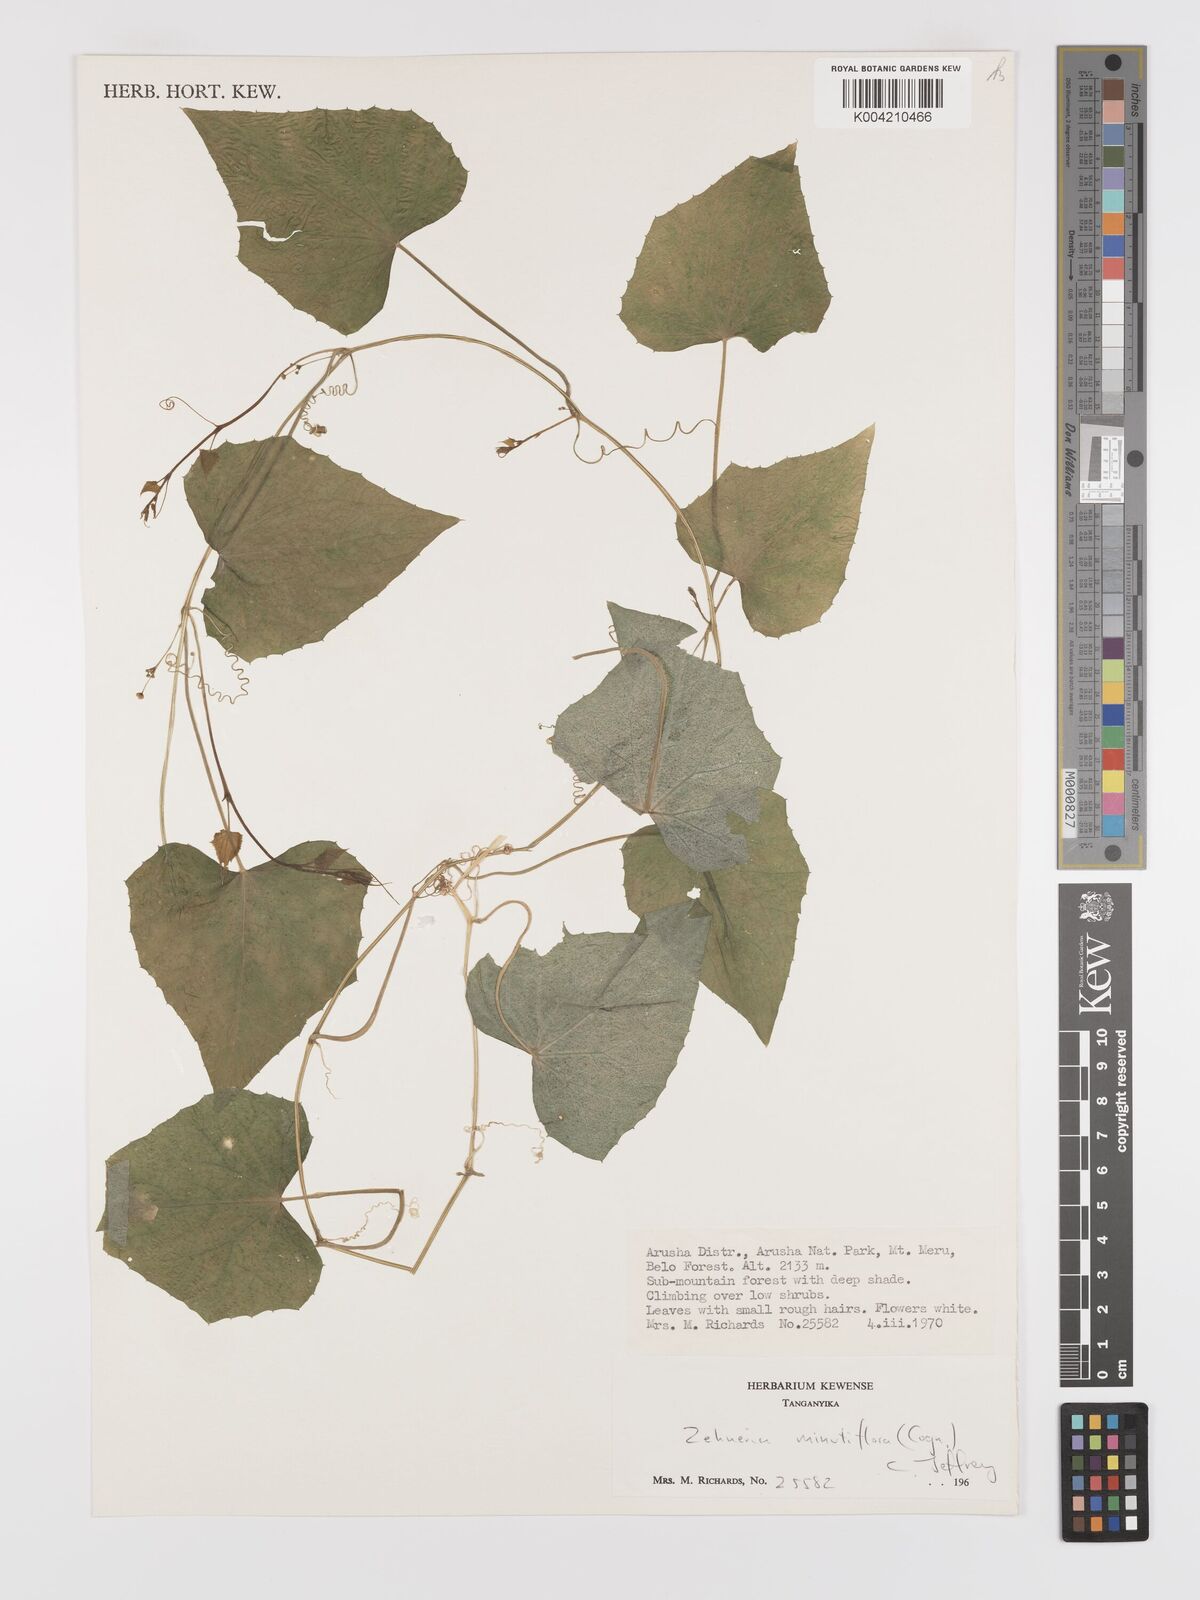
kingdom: Plantae
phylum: Tracheophyta
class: Magnoliopsida
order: Cucurbitales
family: Cucurbitaceae
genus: Zehneria
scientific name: Zehneria minutiflora
